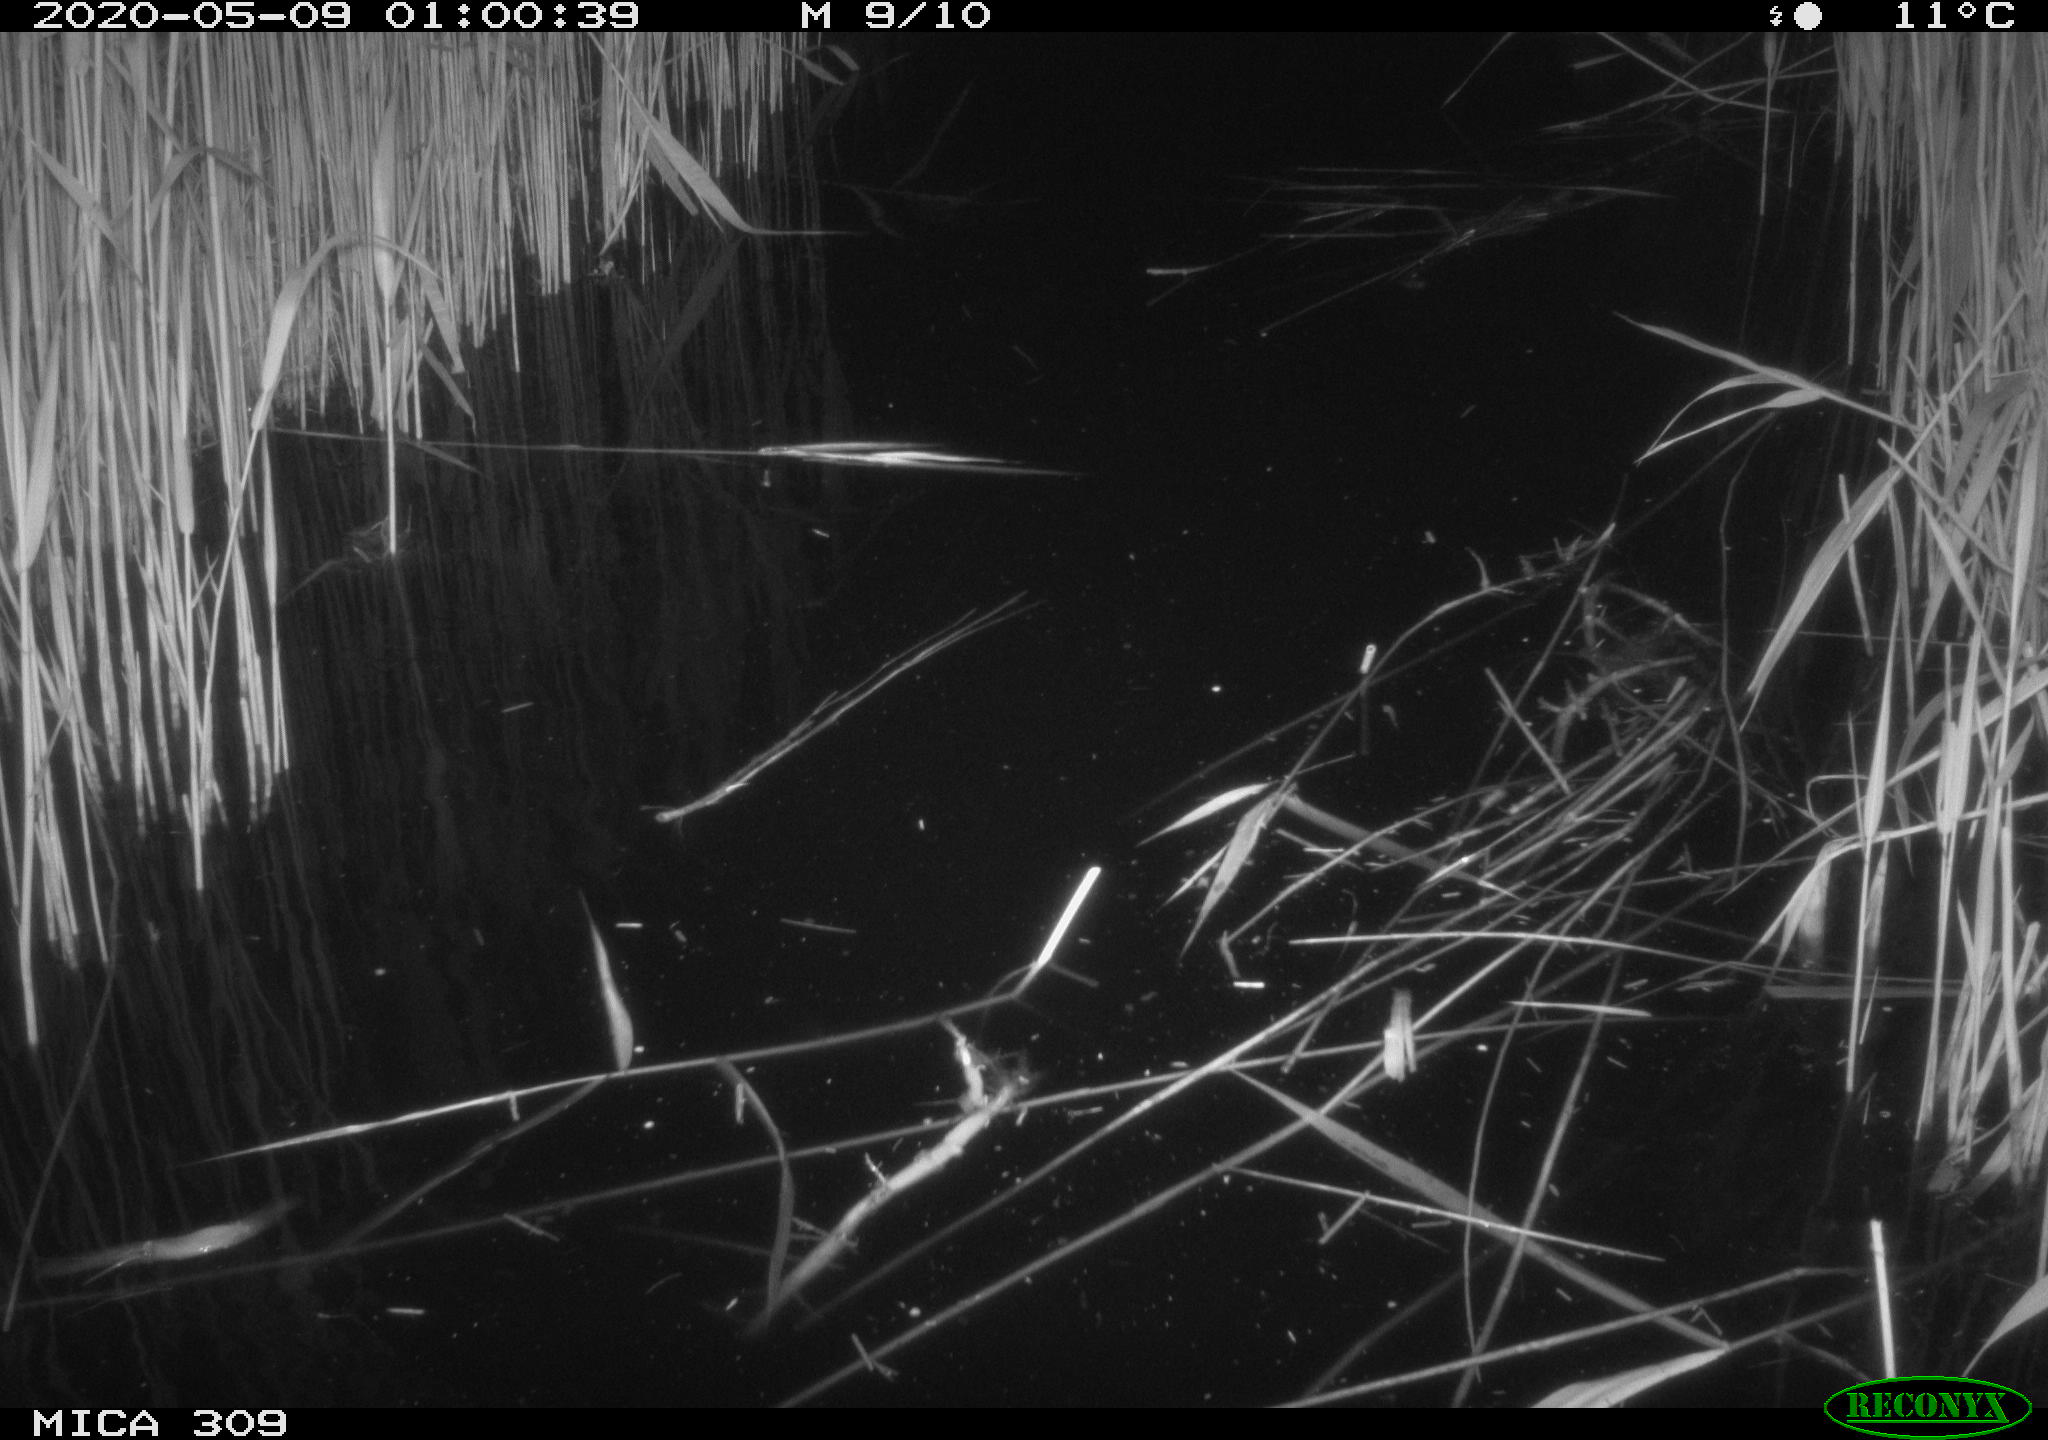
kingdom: Animalia
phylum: Chordata
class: Aves
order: Anseriformes
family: Anatidae
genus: Anas
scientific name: Anas platyrhynchos
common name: Mallard
